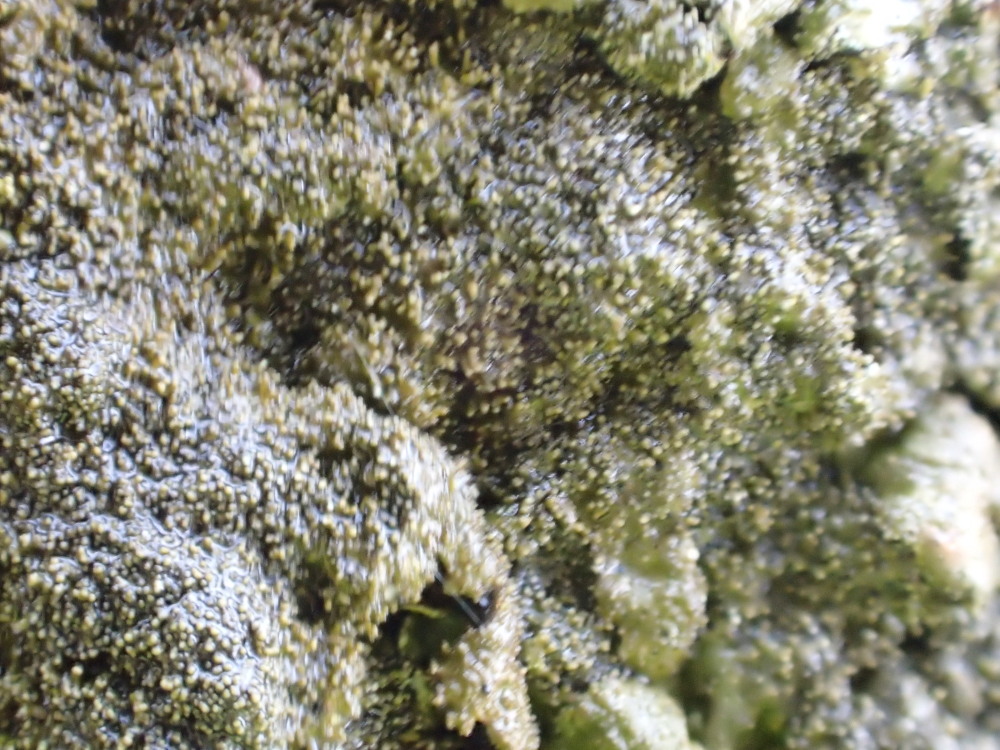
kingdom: Fungi
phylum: Ascomycota
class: Lecanoromycetes
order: Lecanorales
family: Parmeliaceae
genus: Melanelixia
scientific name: Melanelixia fuliginosa
